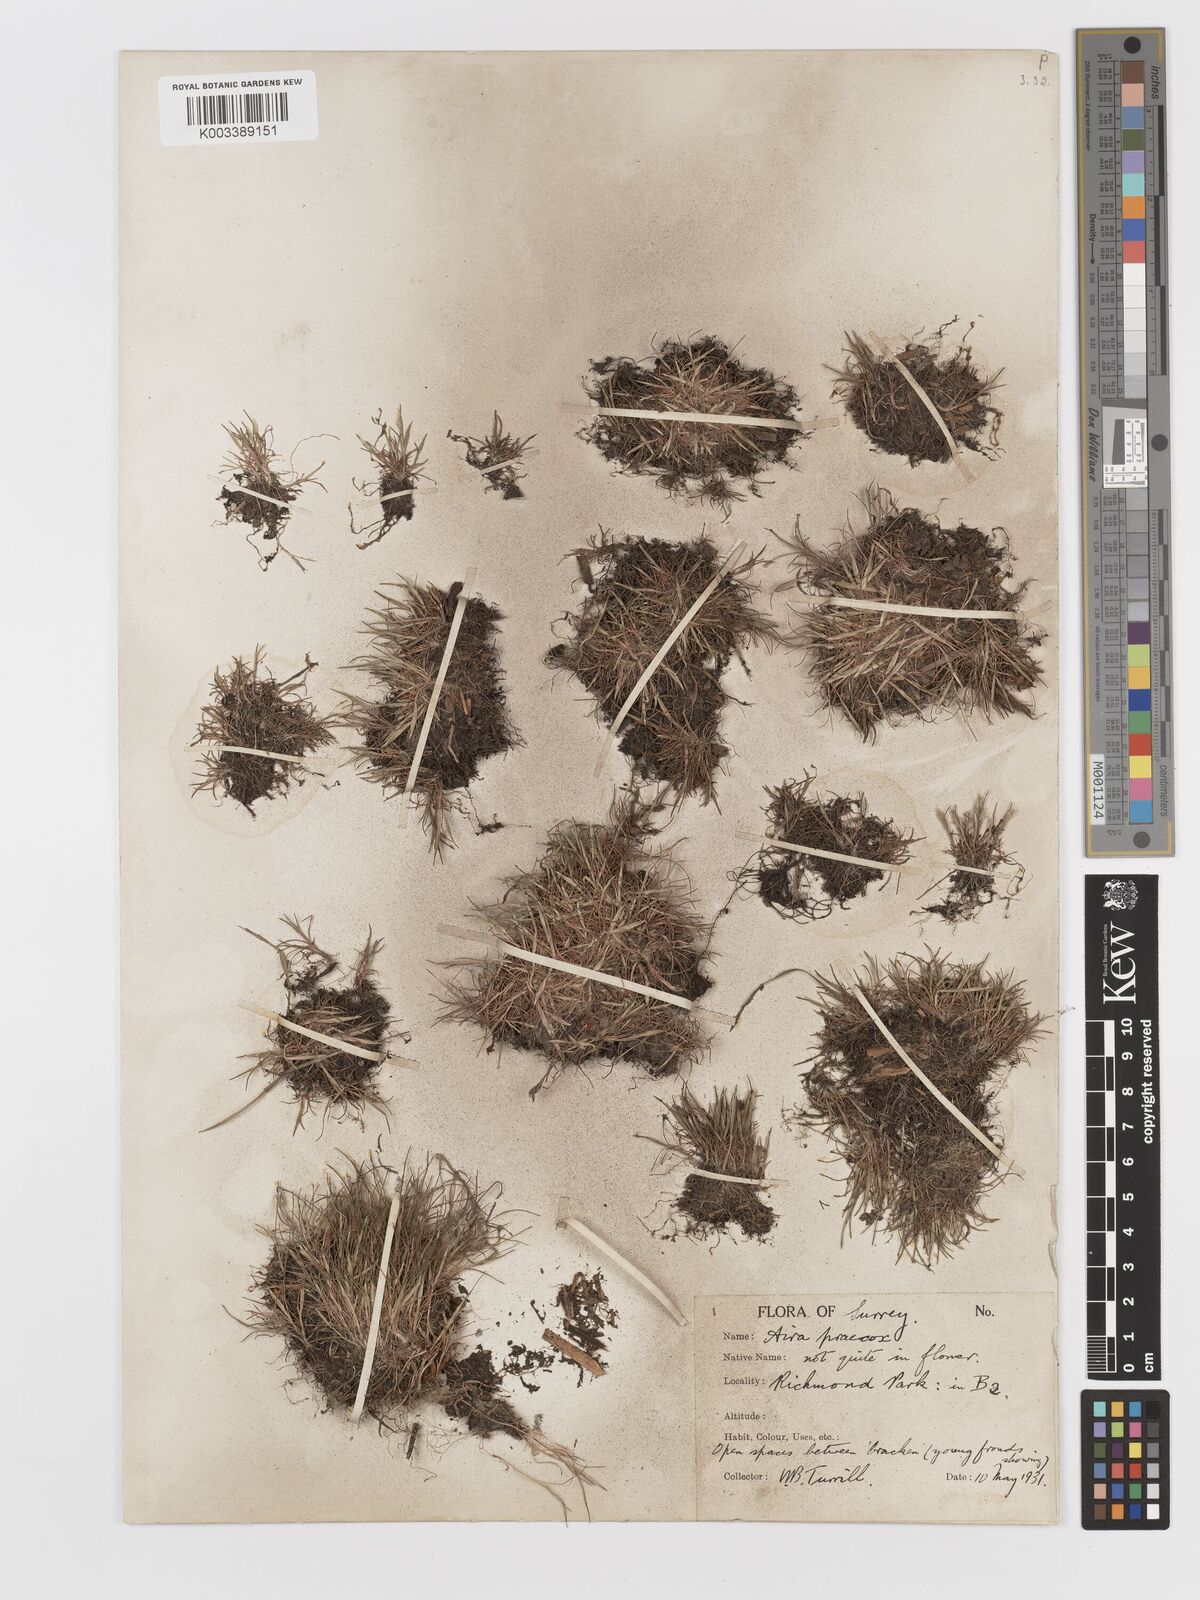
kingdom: Plantae
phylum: Tracheophyta
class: Liliopsida
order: Poales
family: Poaceae
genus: Aira
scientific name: Aira praecox
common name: Early hair-grass
